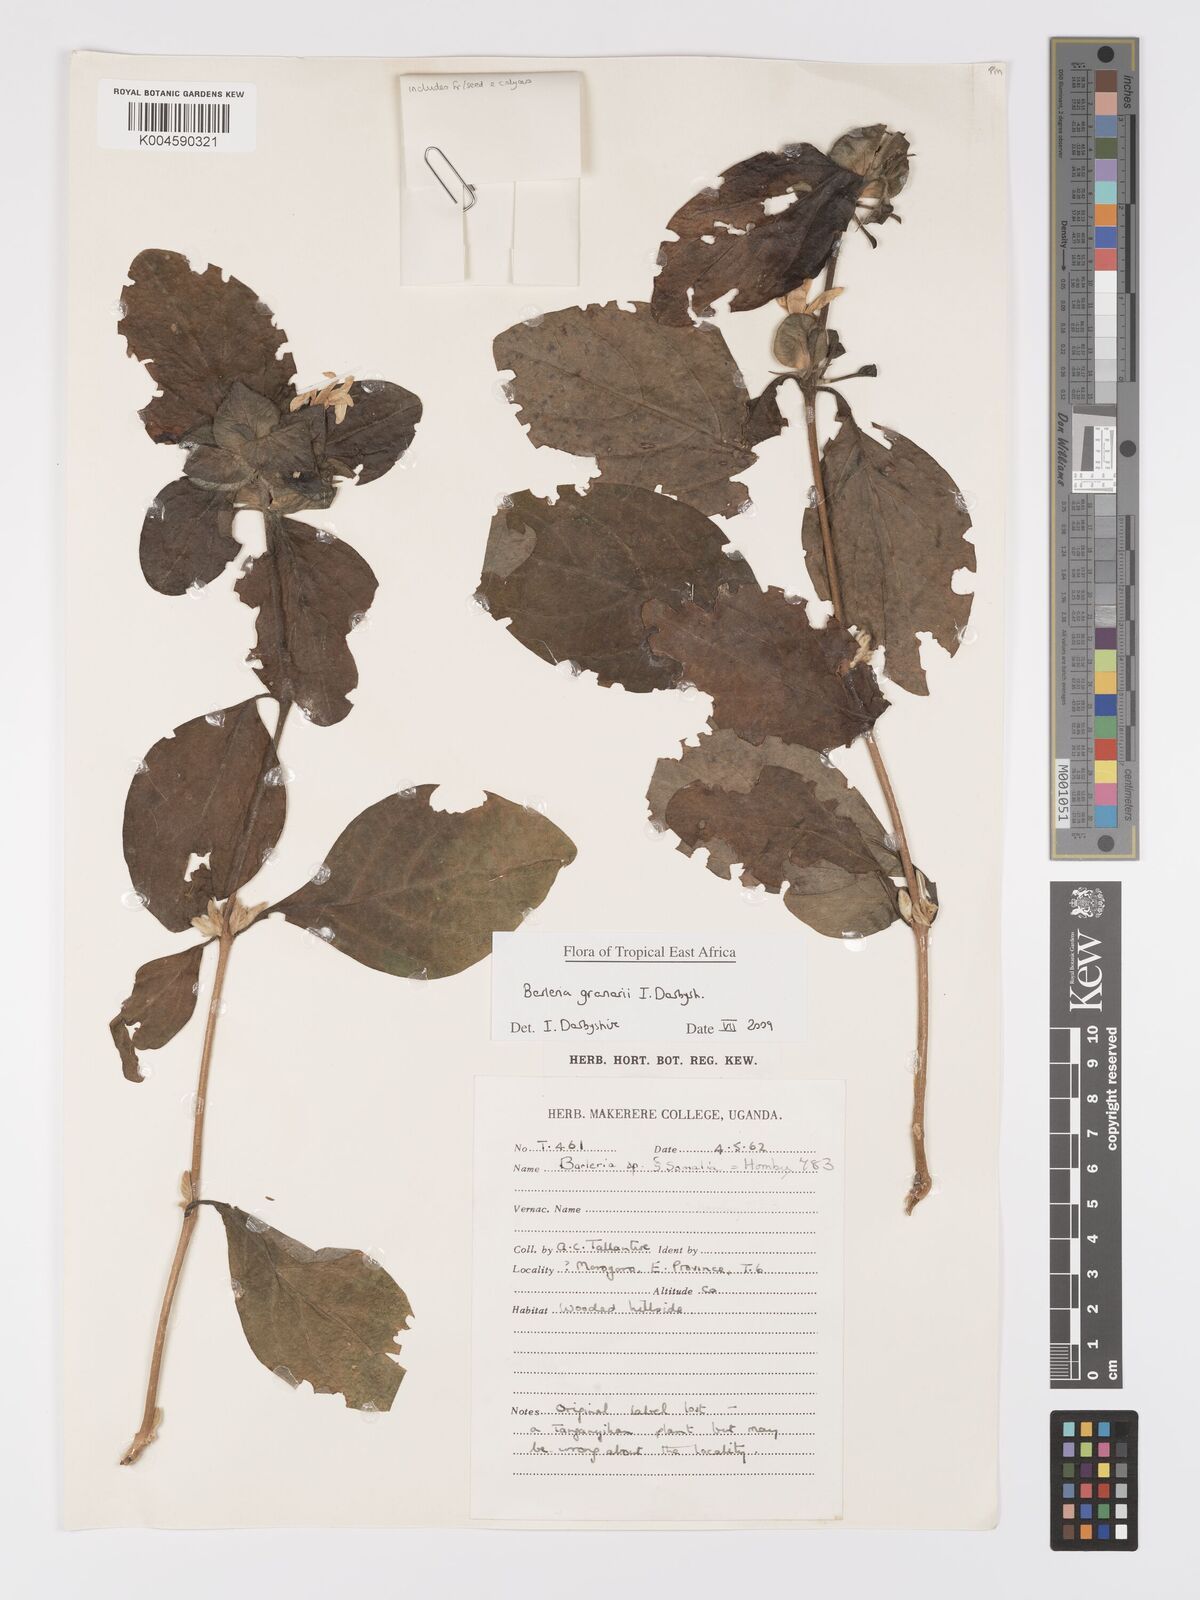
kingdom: Plantae
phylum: Tracheophyta
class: Magnoliopsida
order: Lamiales
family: Acanthaceae
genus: Barleria
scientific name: Barleria granarii
